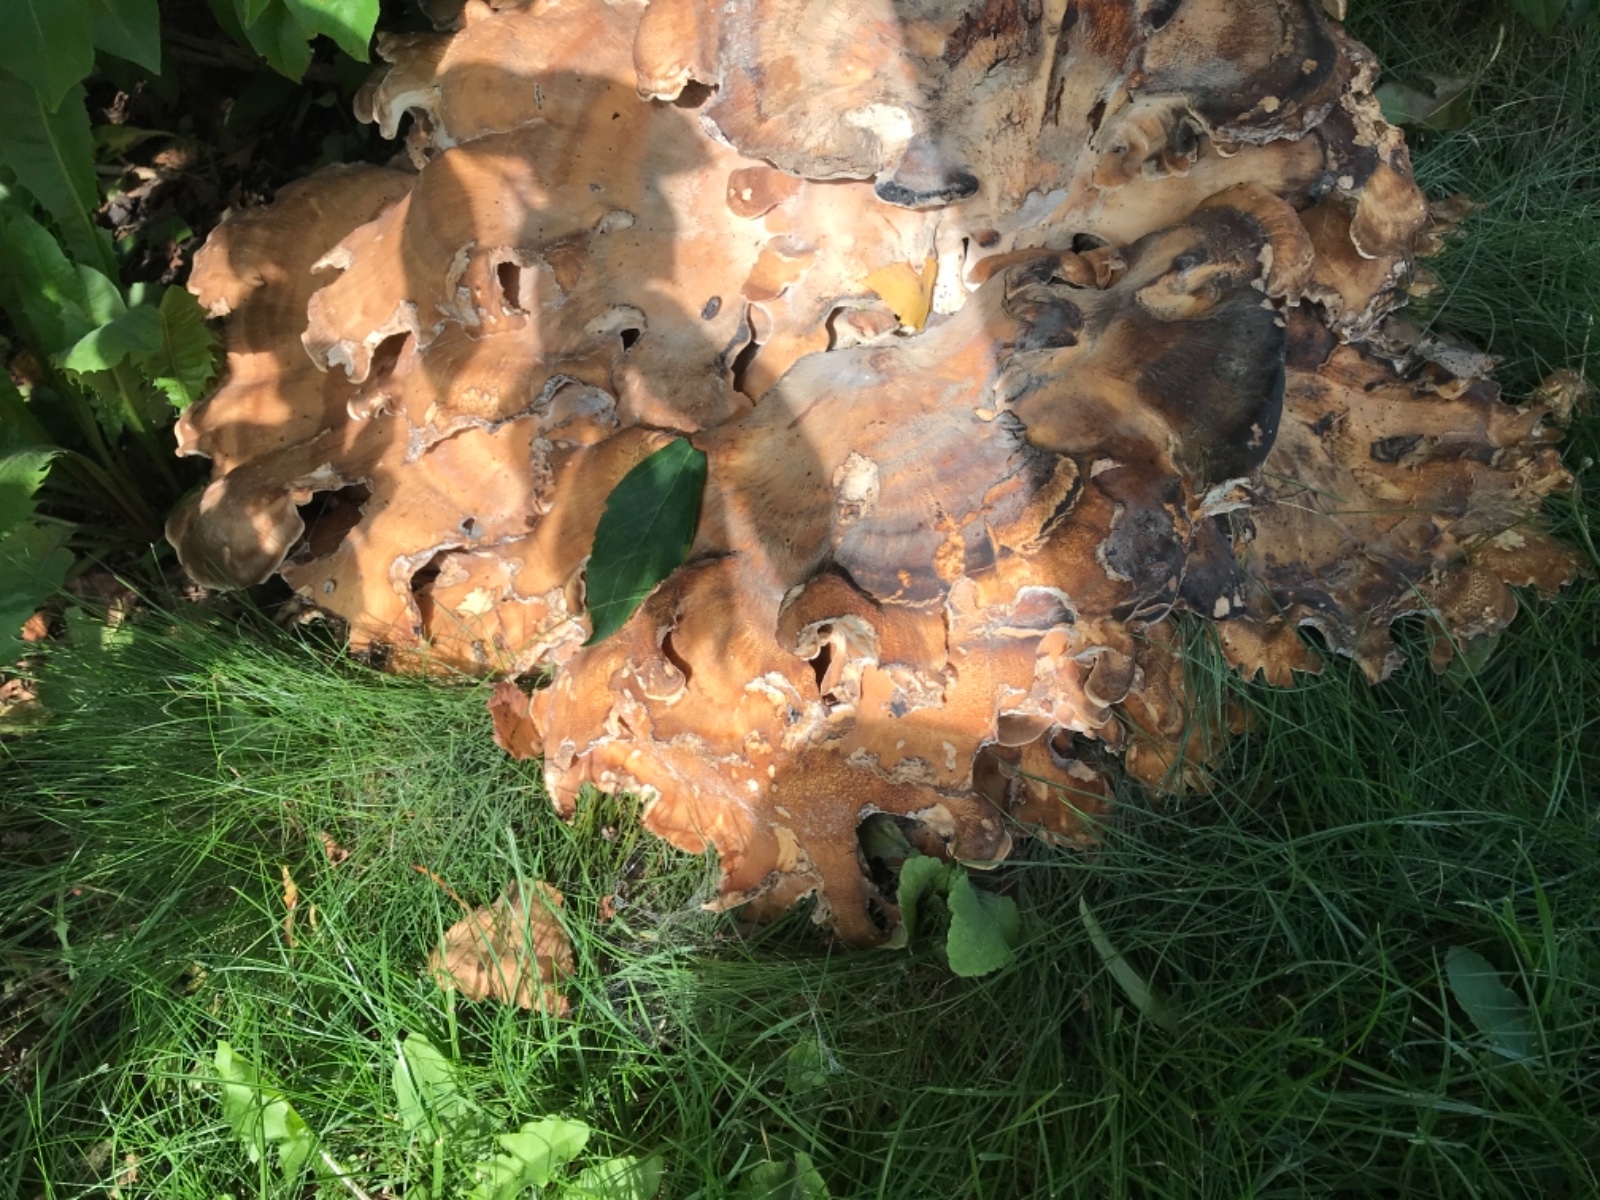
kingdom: Fungi
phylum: Basidiomycota
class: Agaricomycetes
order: Polyporales
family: Meripilaceae
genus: Meripilus
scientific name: Meripilus giganteus
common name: kæmpeporesvamp
